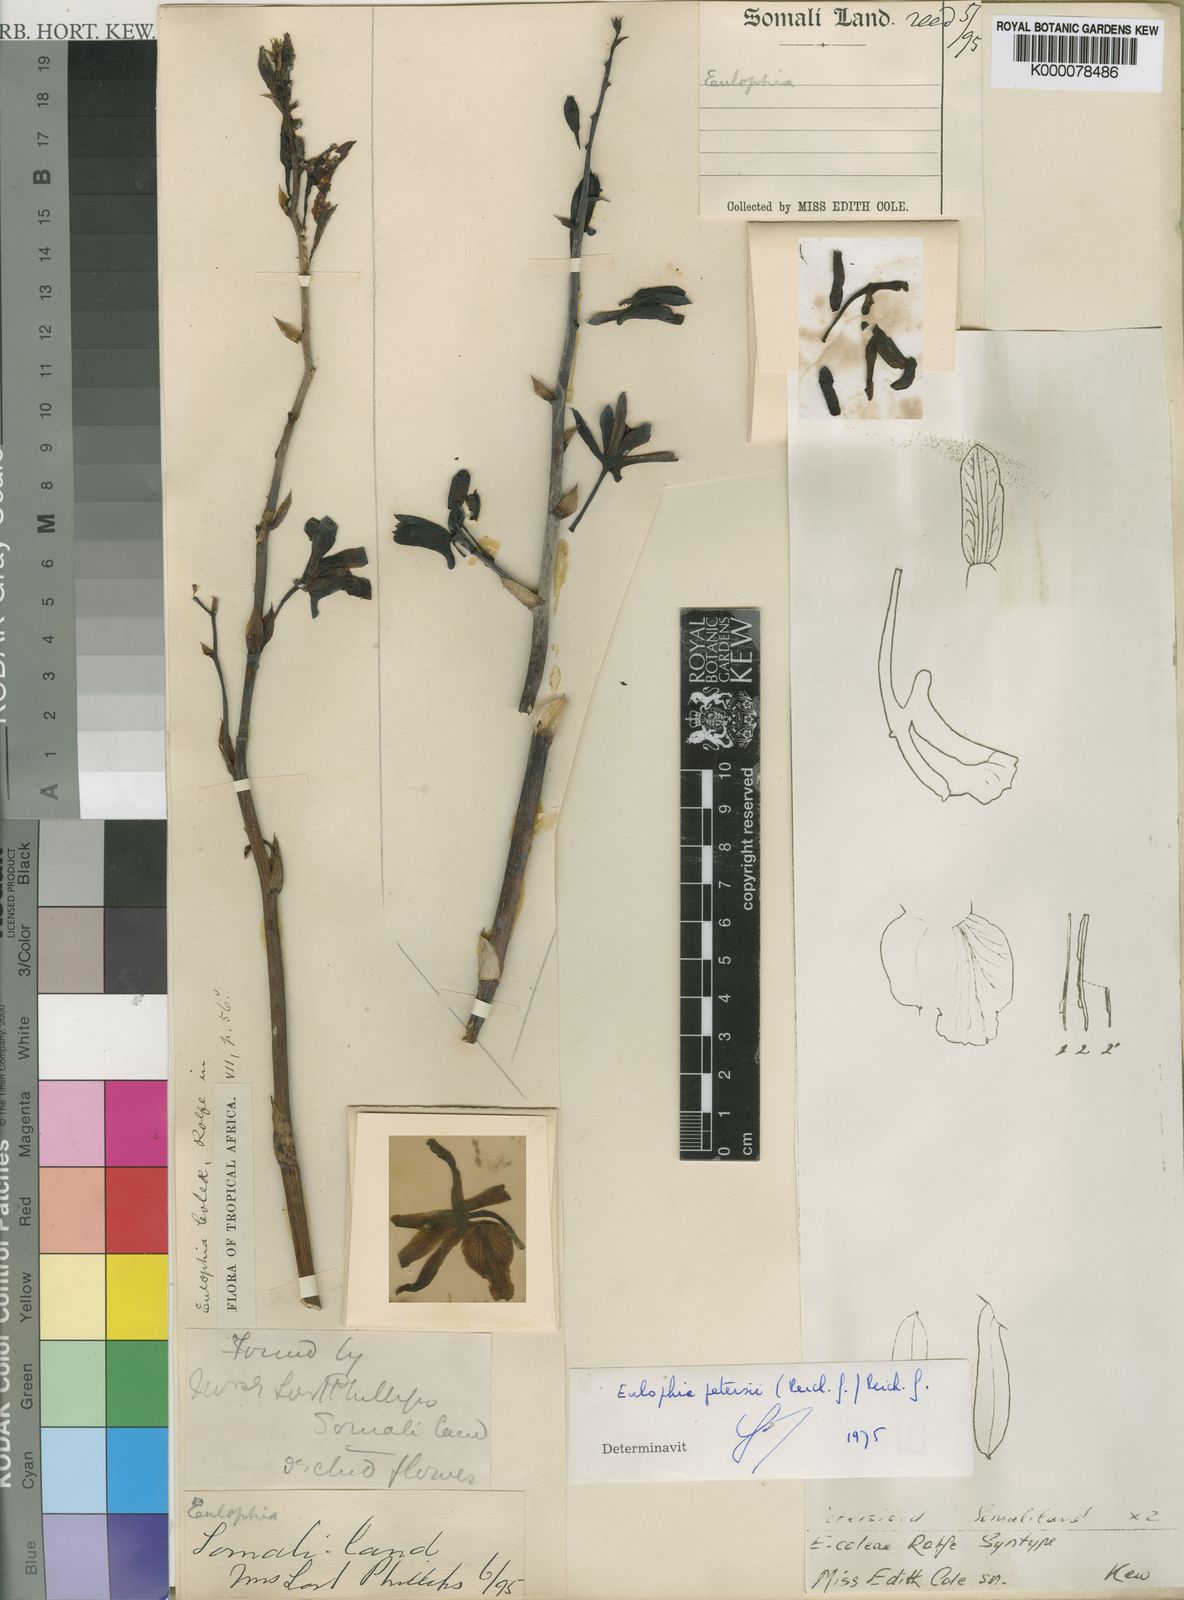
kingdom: Plantae
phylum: Tracheophyta
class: Liliopsida
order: Asparagales
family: Orchidaceae
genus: Eulophia
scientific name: Eulophia petersii
